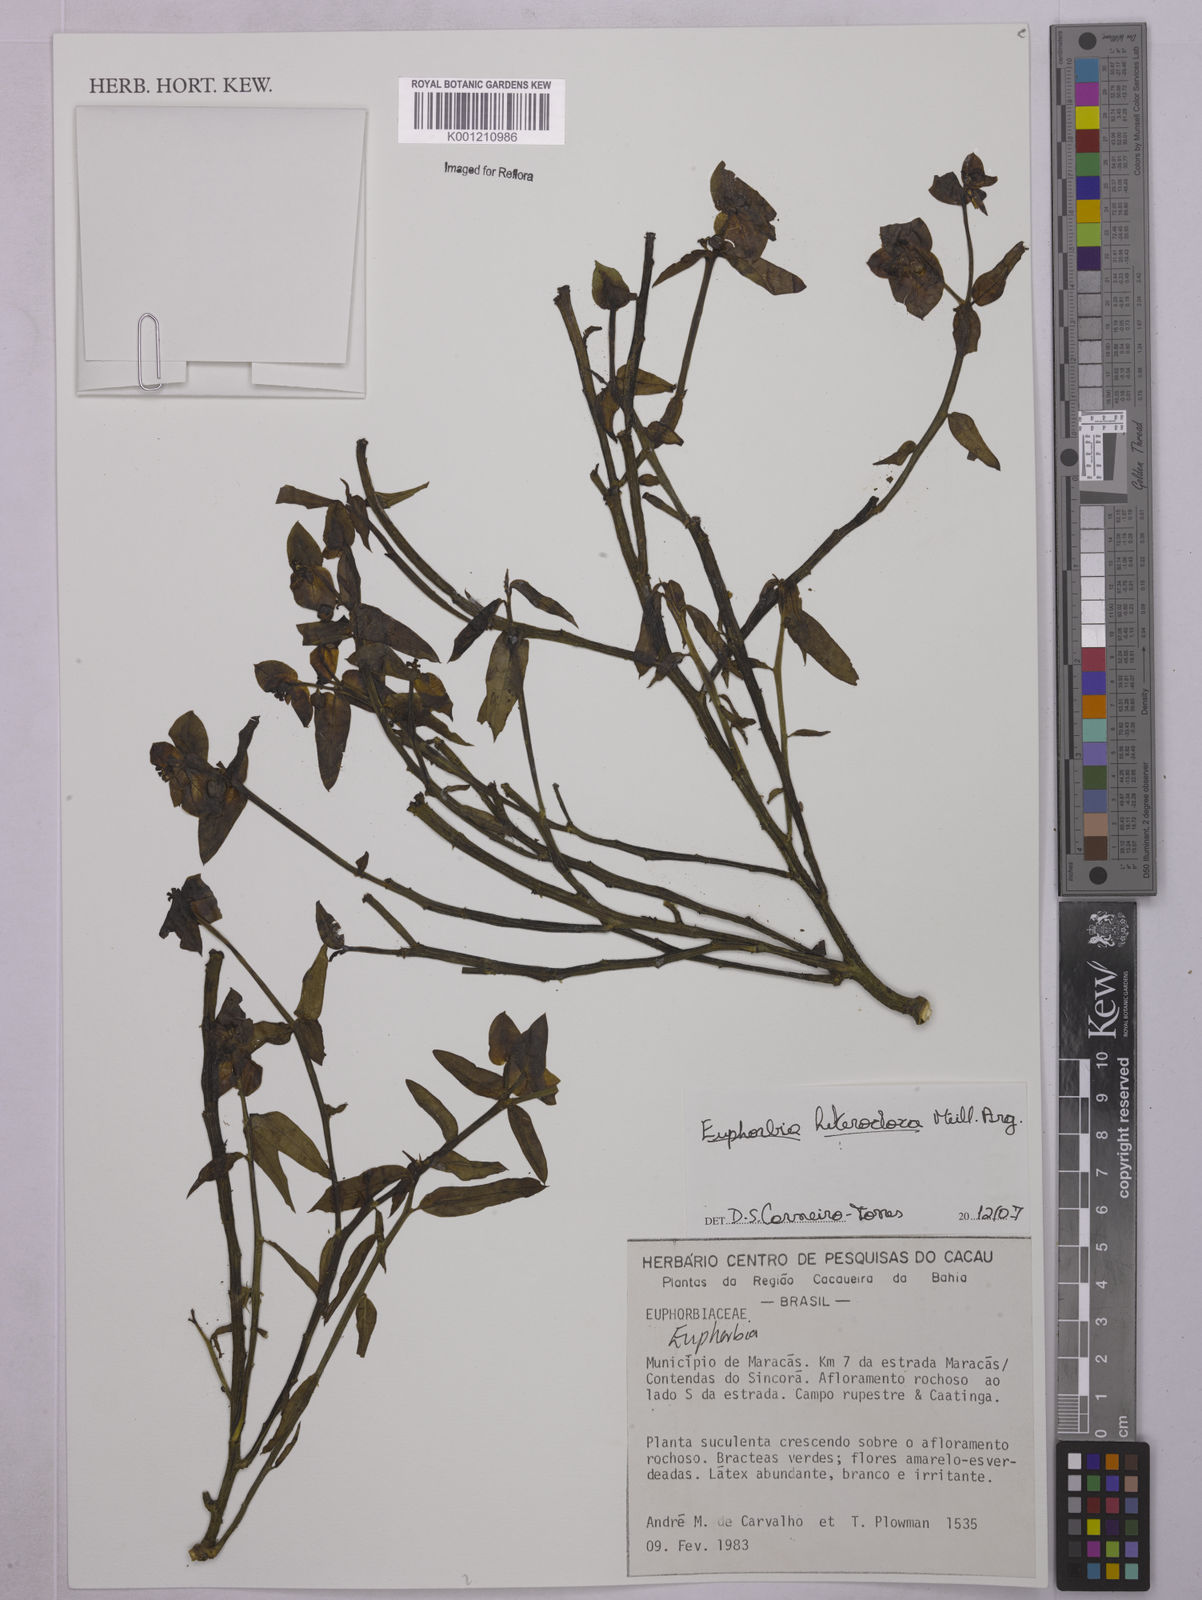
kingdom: Plantae
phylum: Tracheophyta
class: Magnoliopsida
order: Malpighiales
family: Euphorbiaceae
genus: Euphorbia
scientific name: Euphorbia
